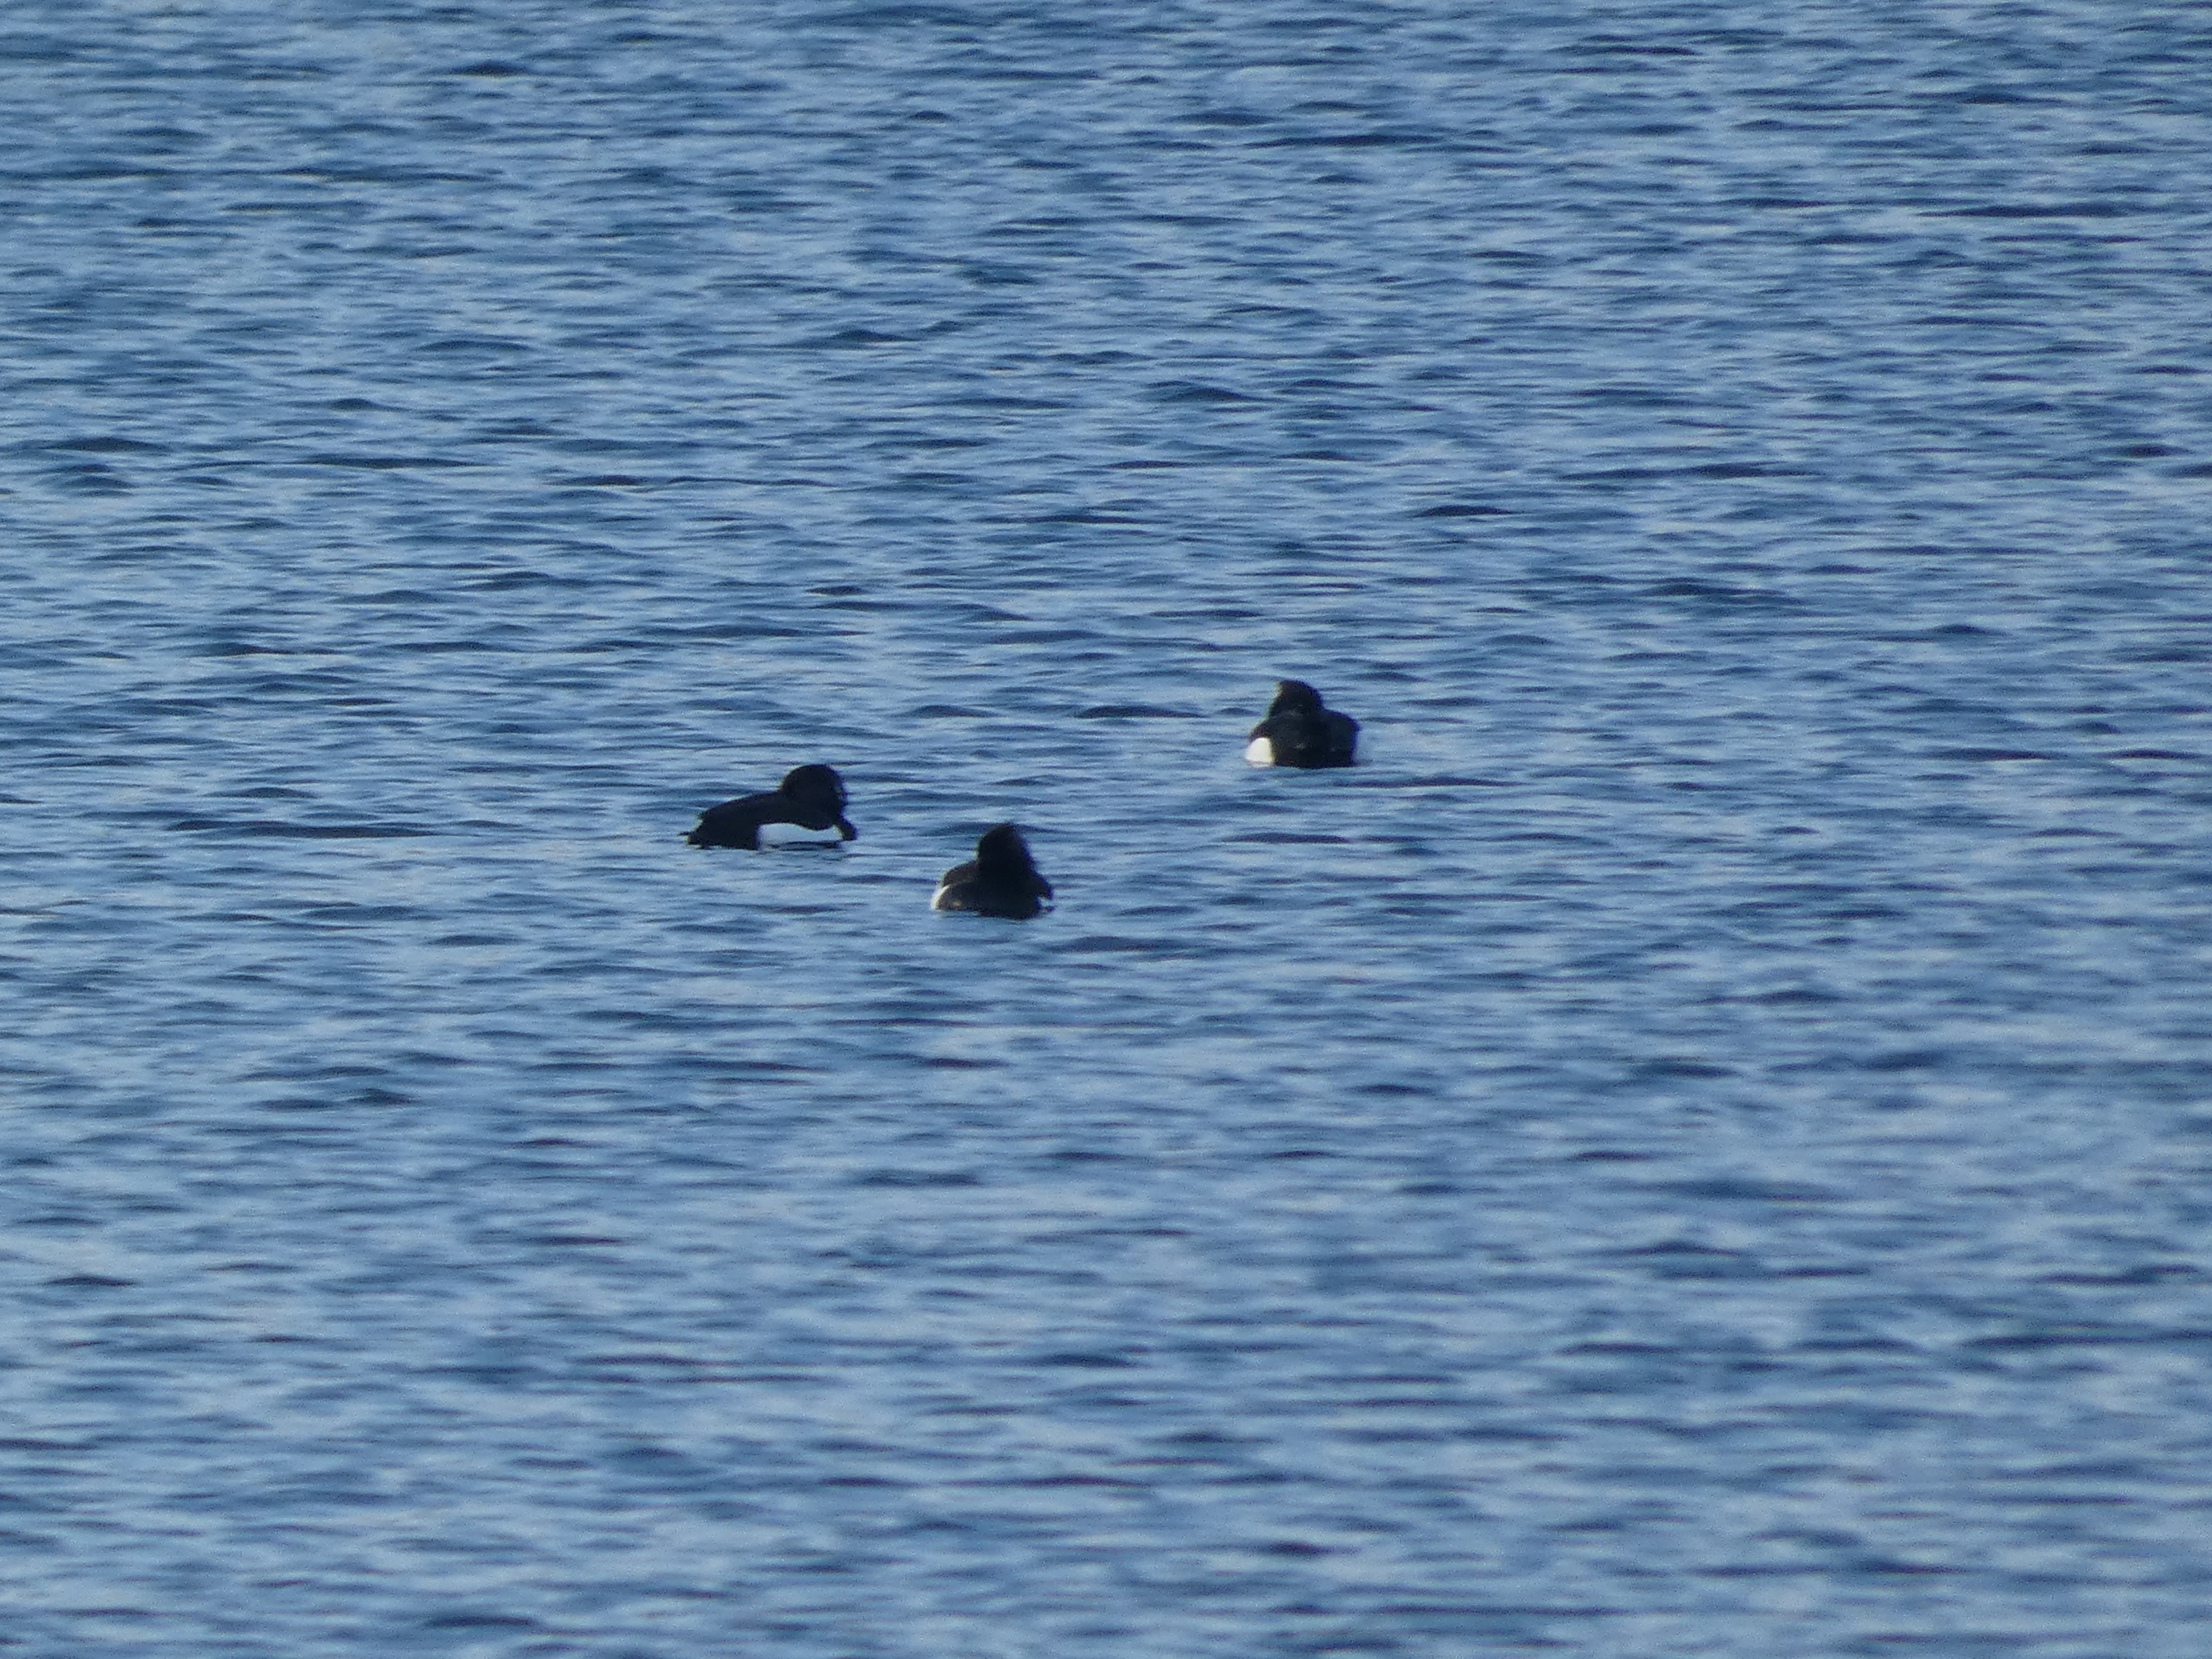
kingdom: Animalia
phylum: Chordata
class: Aves
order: Anseriformes
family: Anatidae
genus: Aythya
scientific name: Aythya fuligula
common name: Troldand
